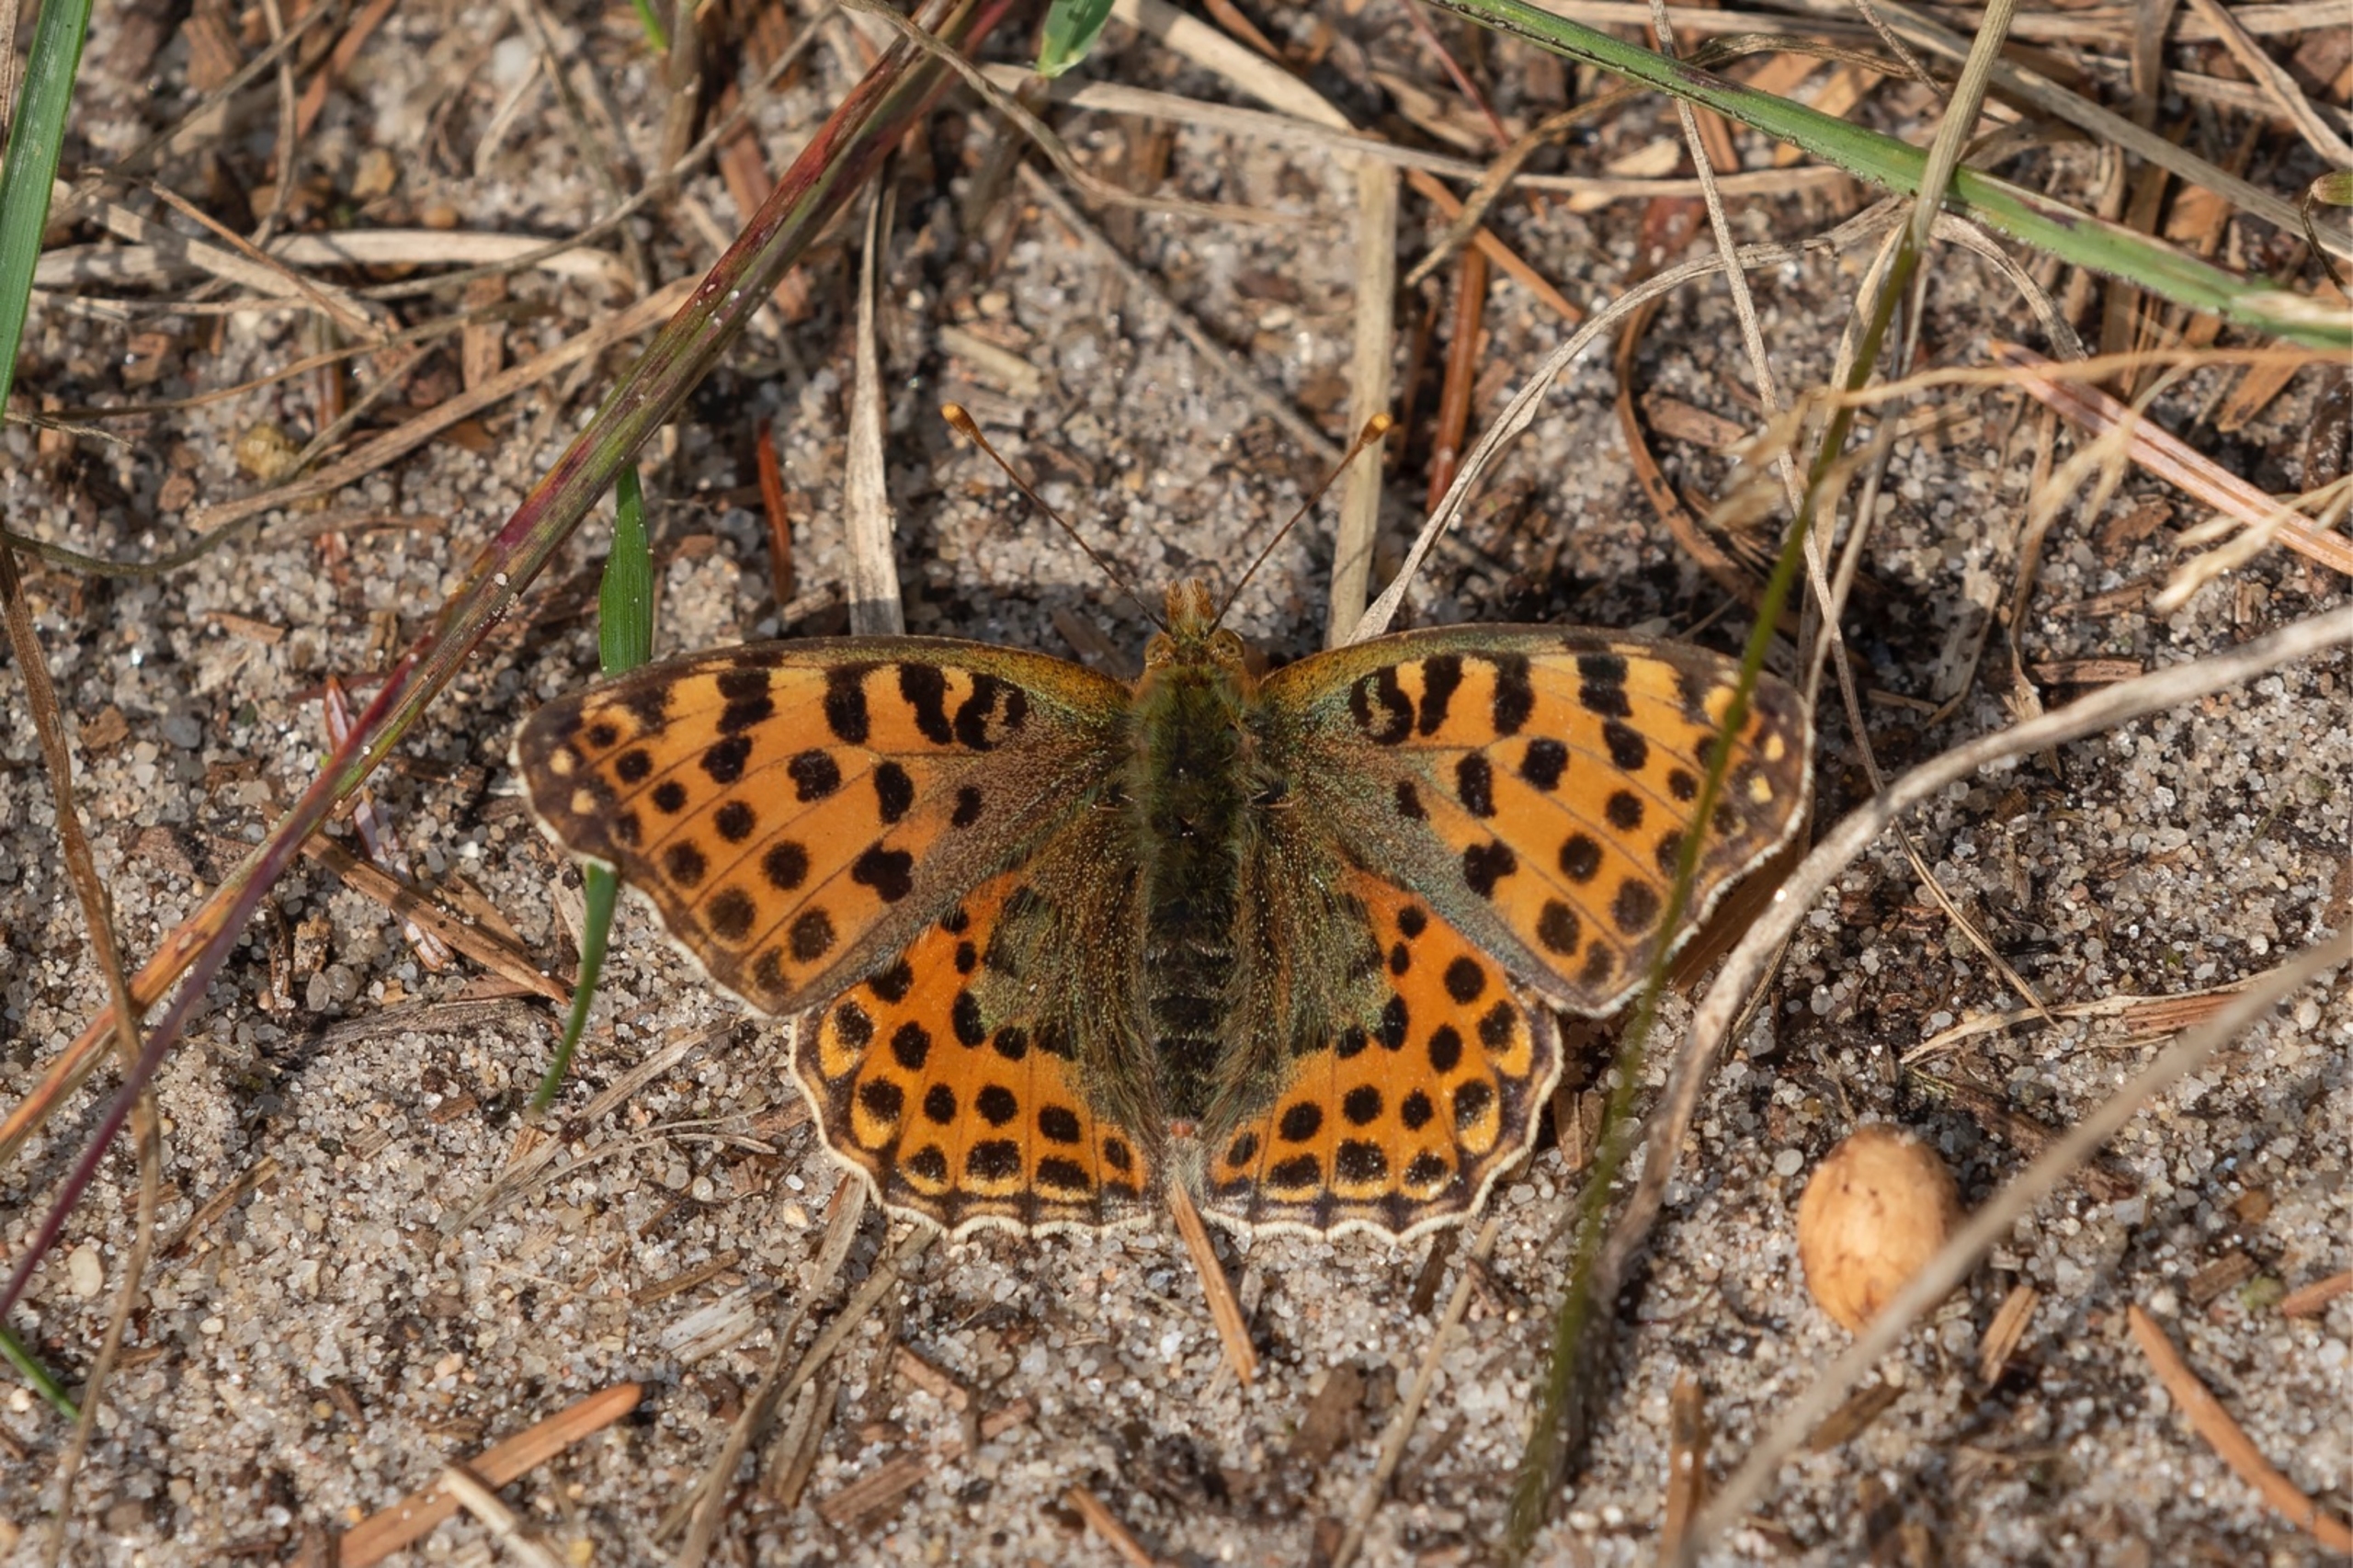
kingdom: Animalia
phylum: Arthropoda
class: Insecta
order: Lepidoptera
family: Nymphalidae
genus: Issoria
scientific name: Issoria lathonia
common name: Storplettet perlemorsommerfugl
